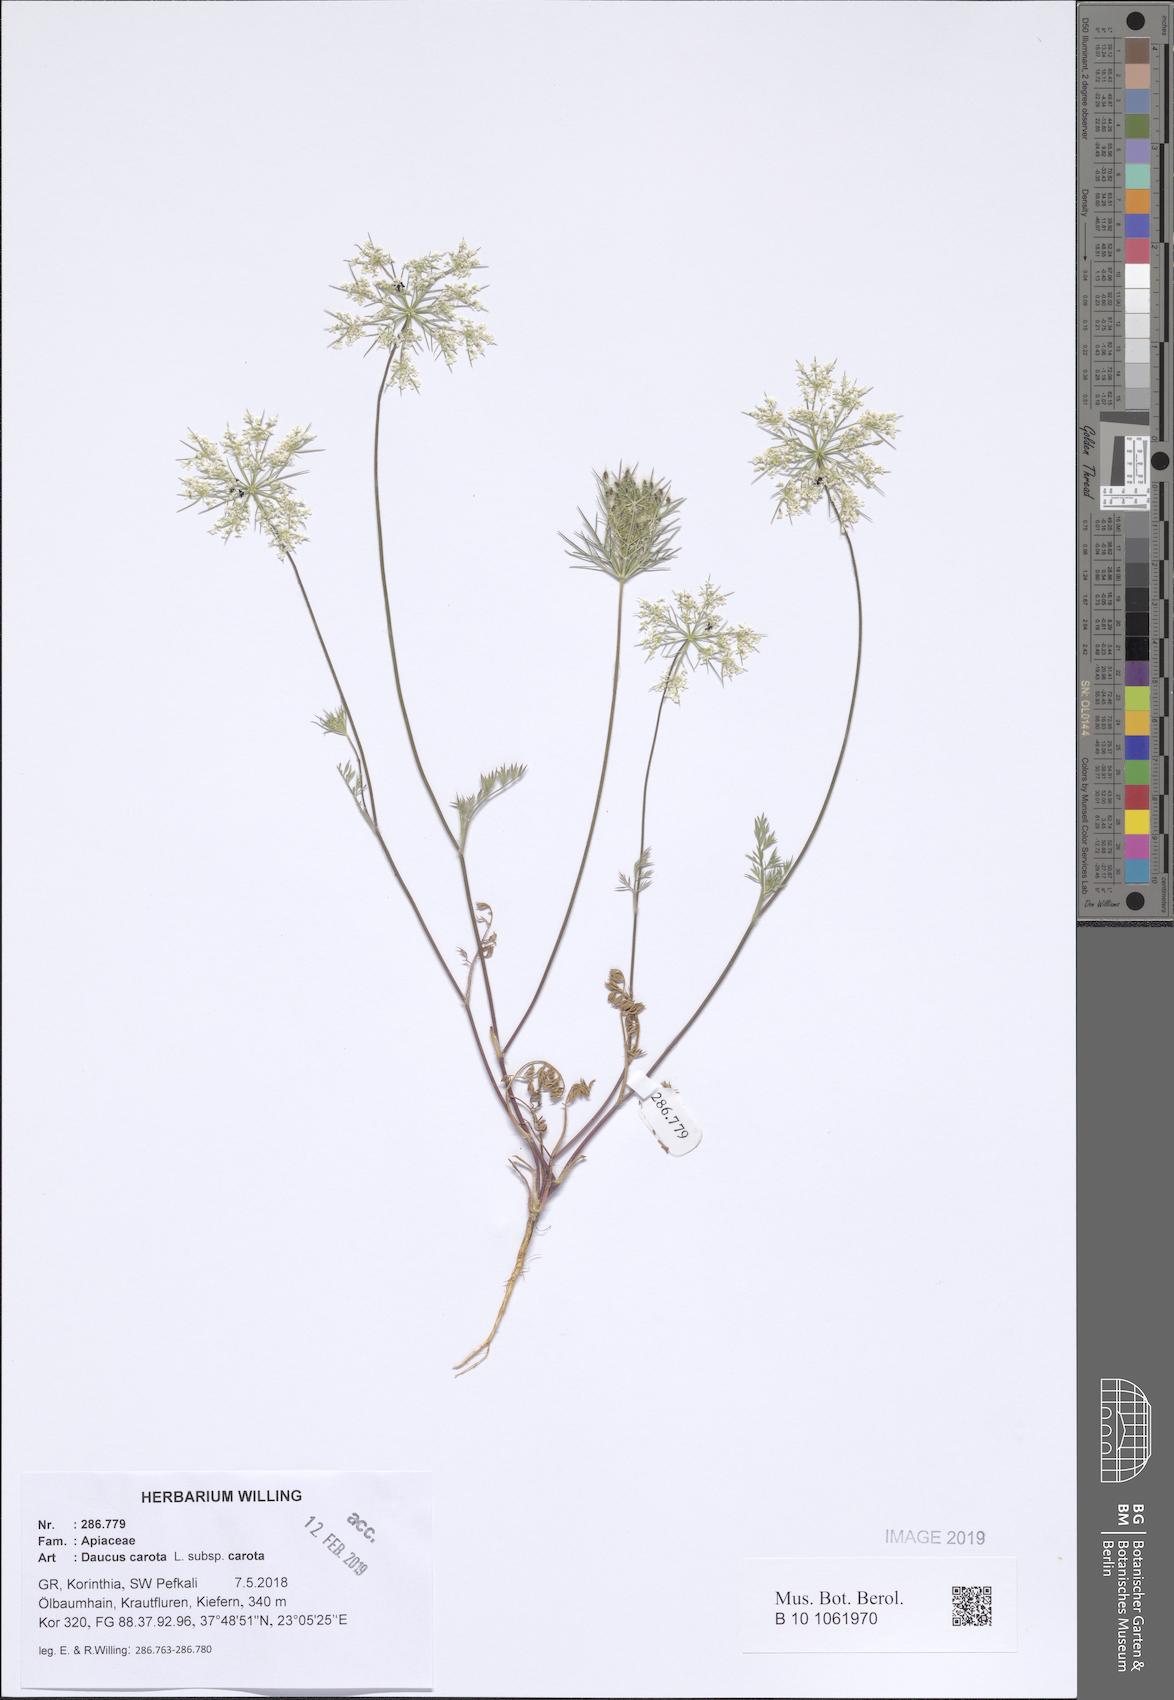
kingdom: Plantae
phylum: Tracheophyta
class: Magnoliopsida
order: Apiales
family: Apiaceae
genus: Daucus
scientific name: Daucus carota
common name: Wild carrot
